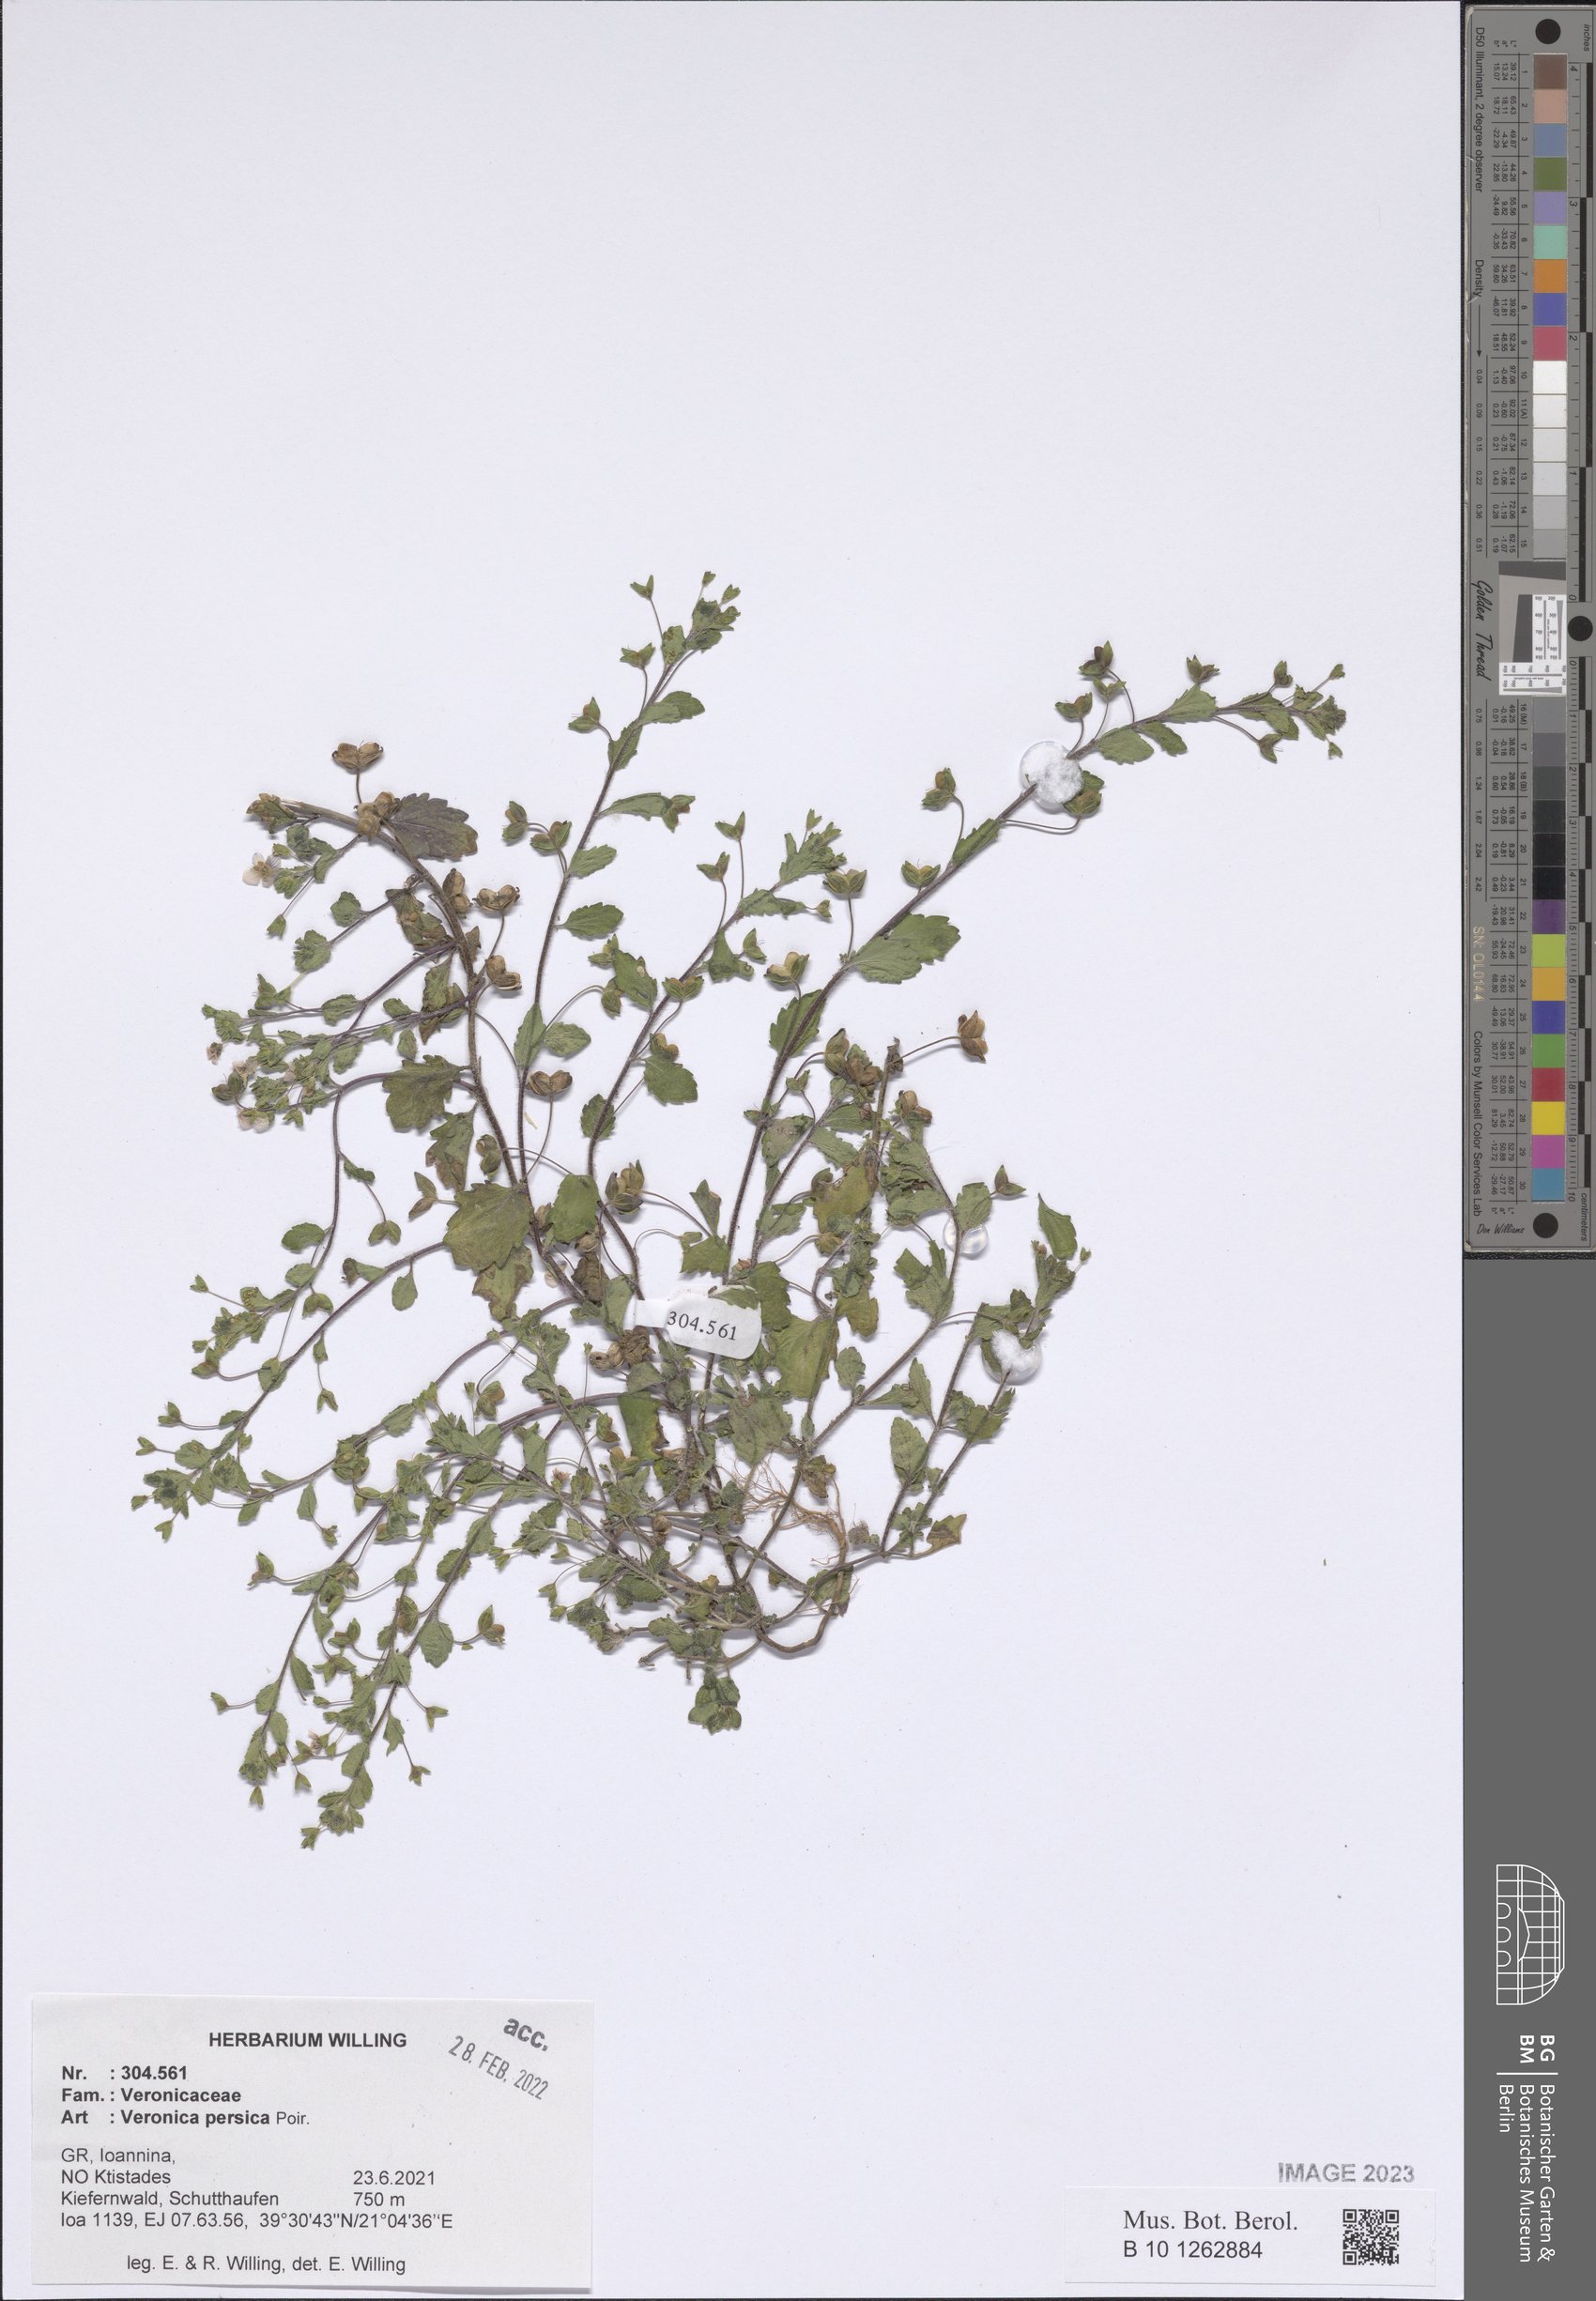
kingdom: Plantae
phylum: Tracheophyta
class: Magnoliopsida
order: Lamiales
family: Plantaginaceae
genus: Veronica
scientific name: Veronica persica
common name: Common field-speedwell
